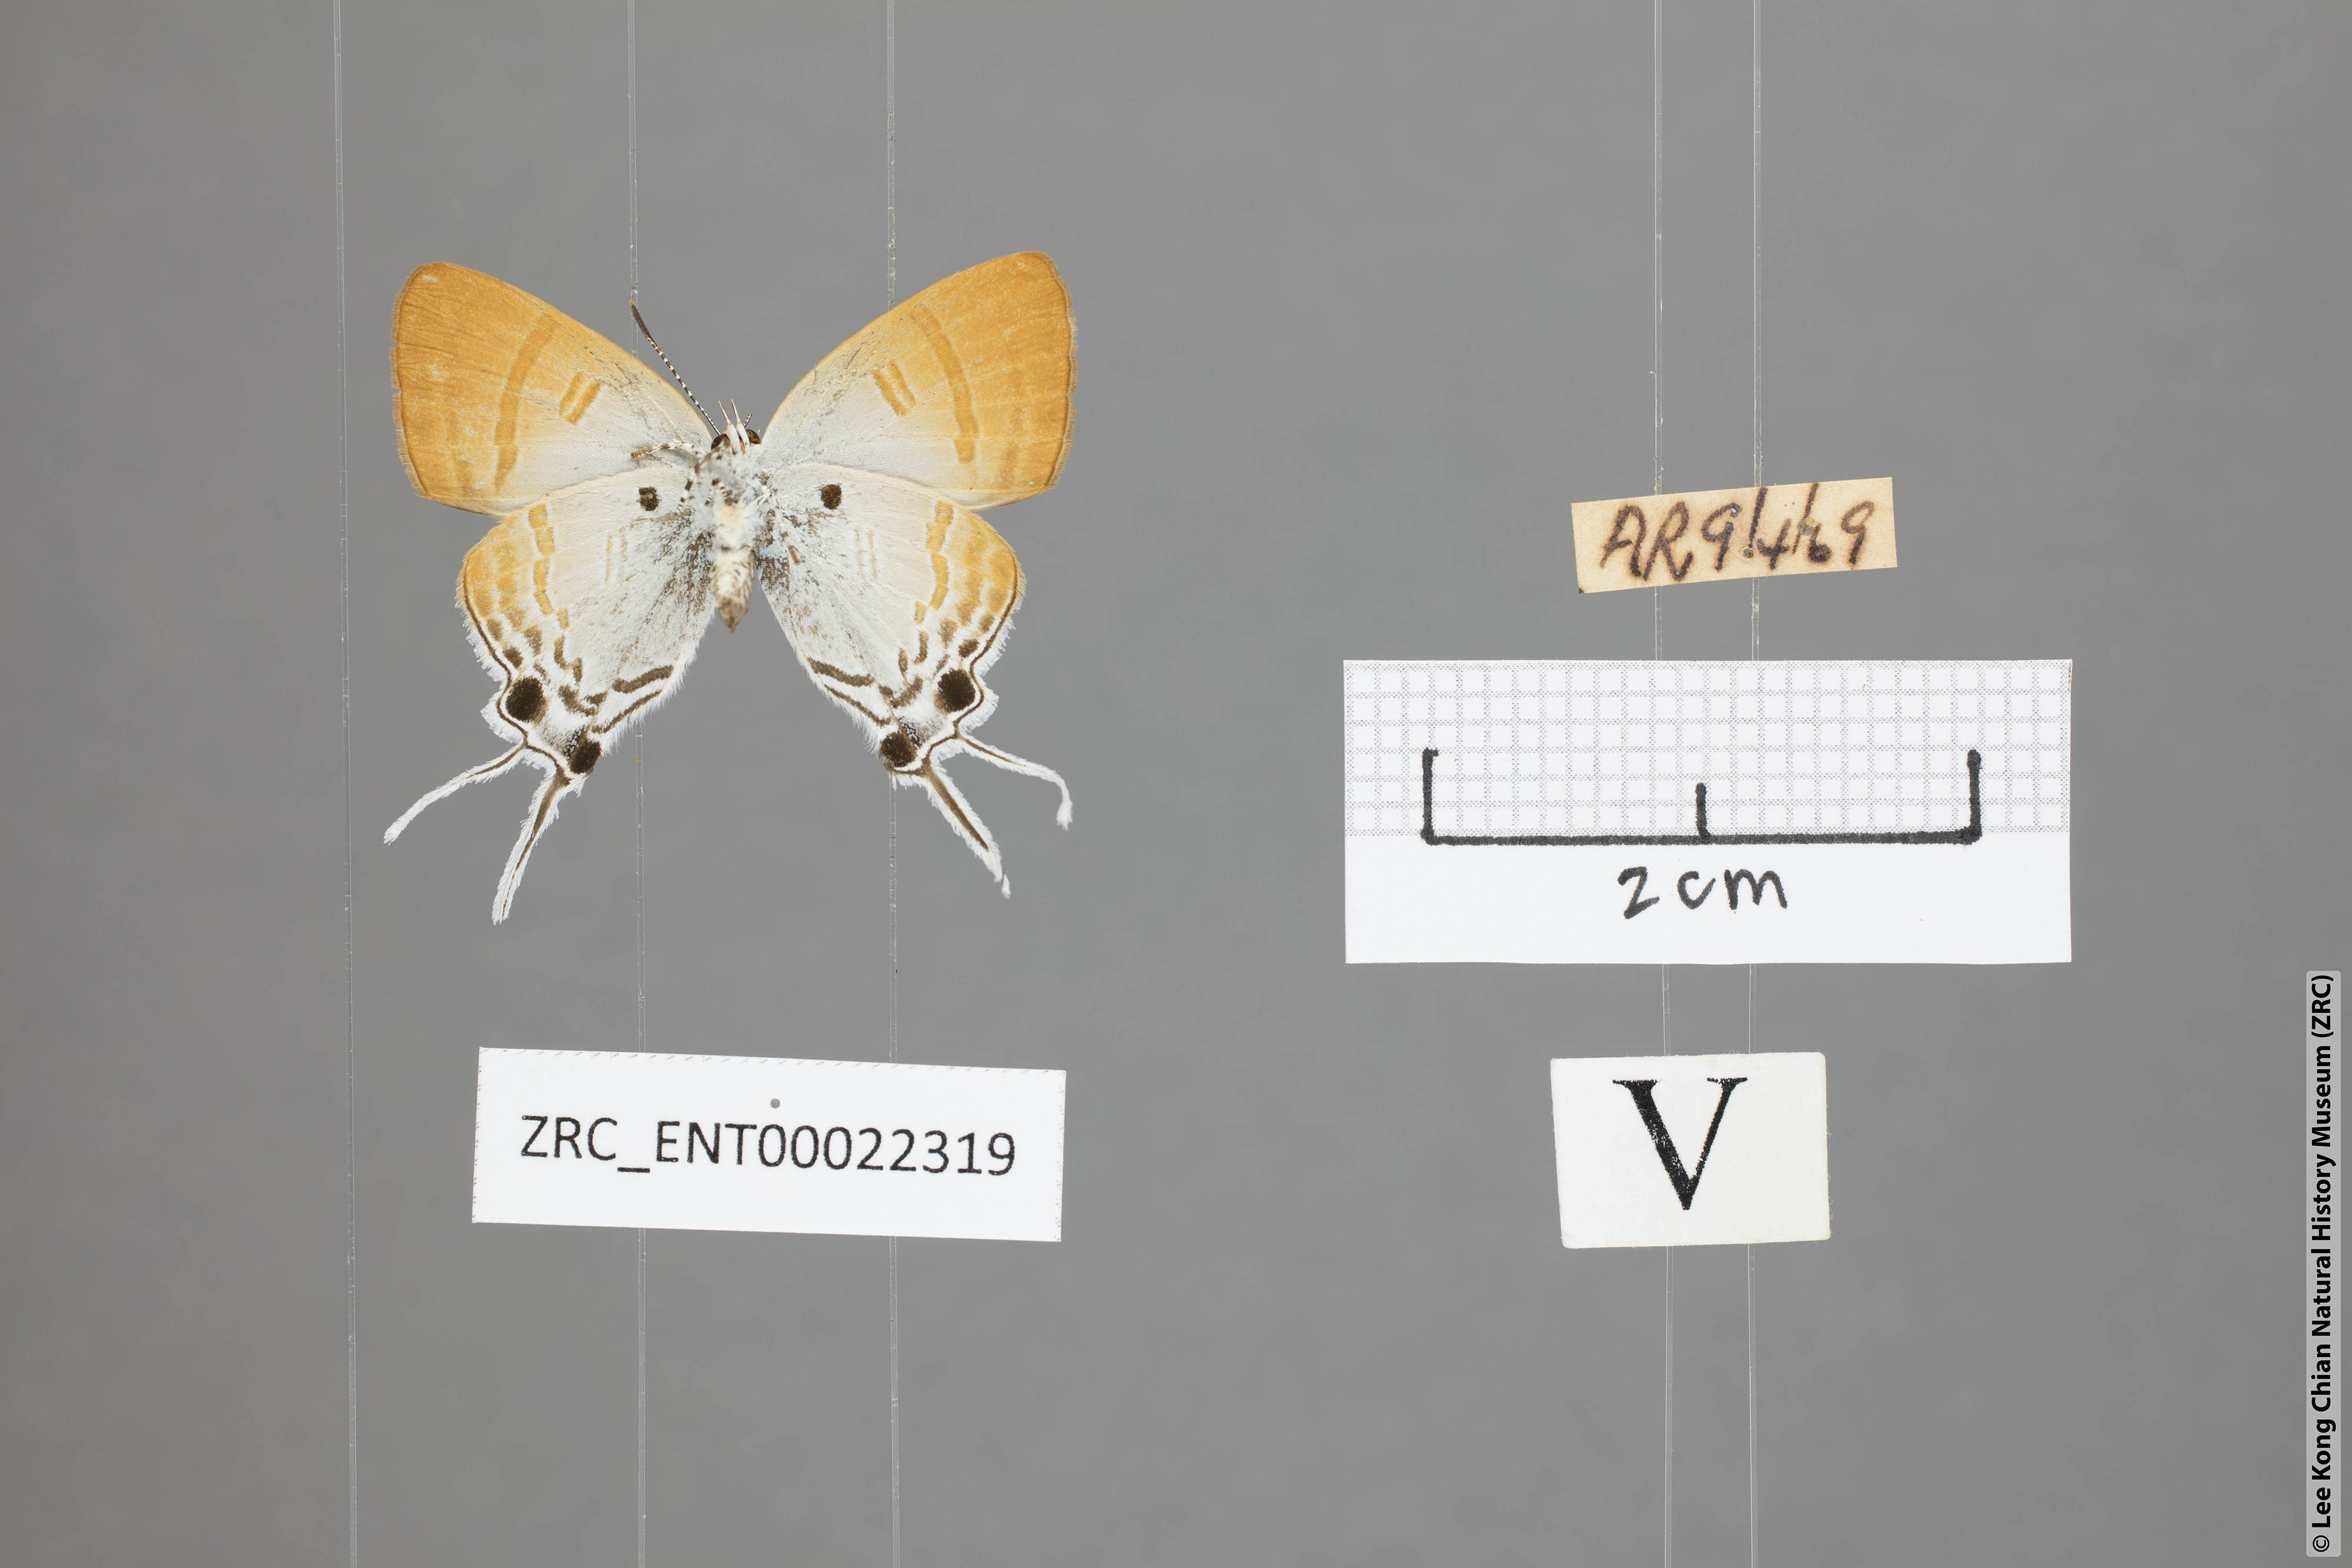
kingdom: Animalia
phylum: Arthropoda
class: Insecta
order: Lepidoptera
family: Lycaenidae
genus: Zeltus
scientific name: Zeltus amasa
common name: Fluffy tit
